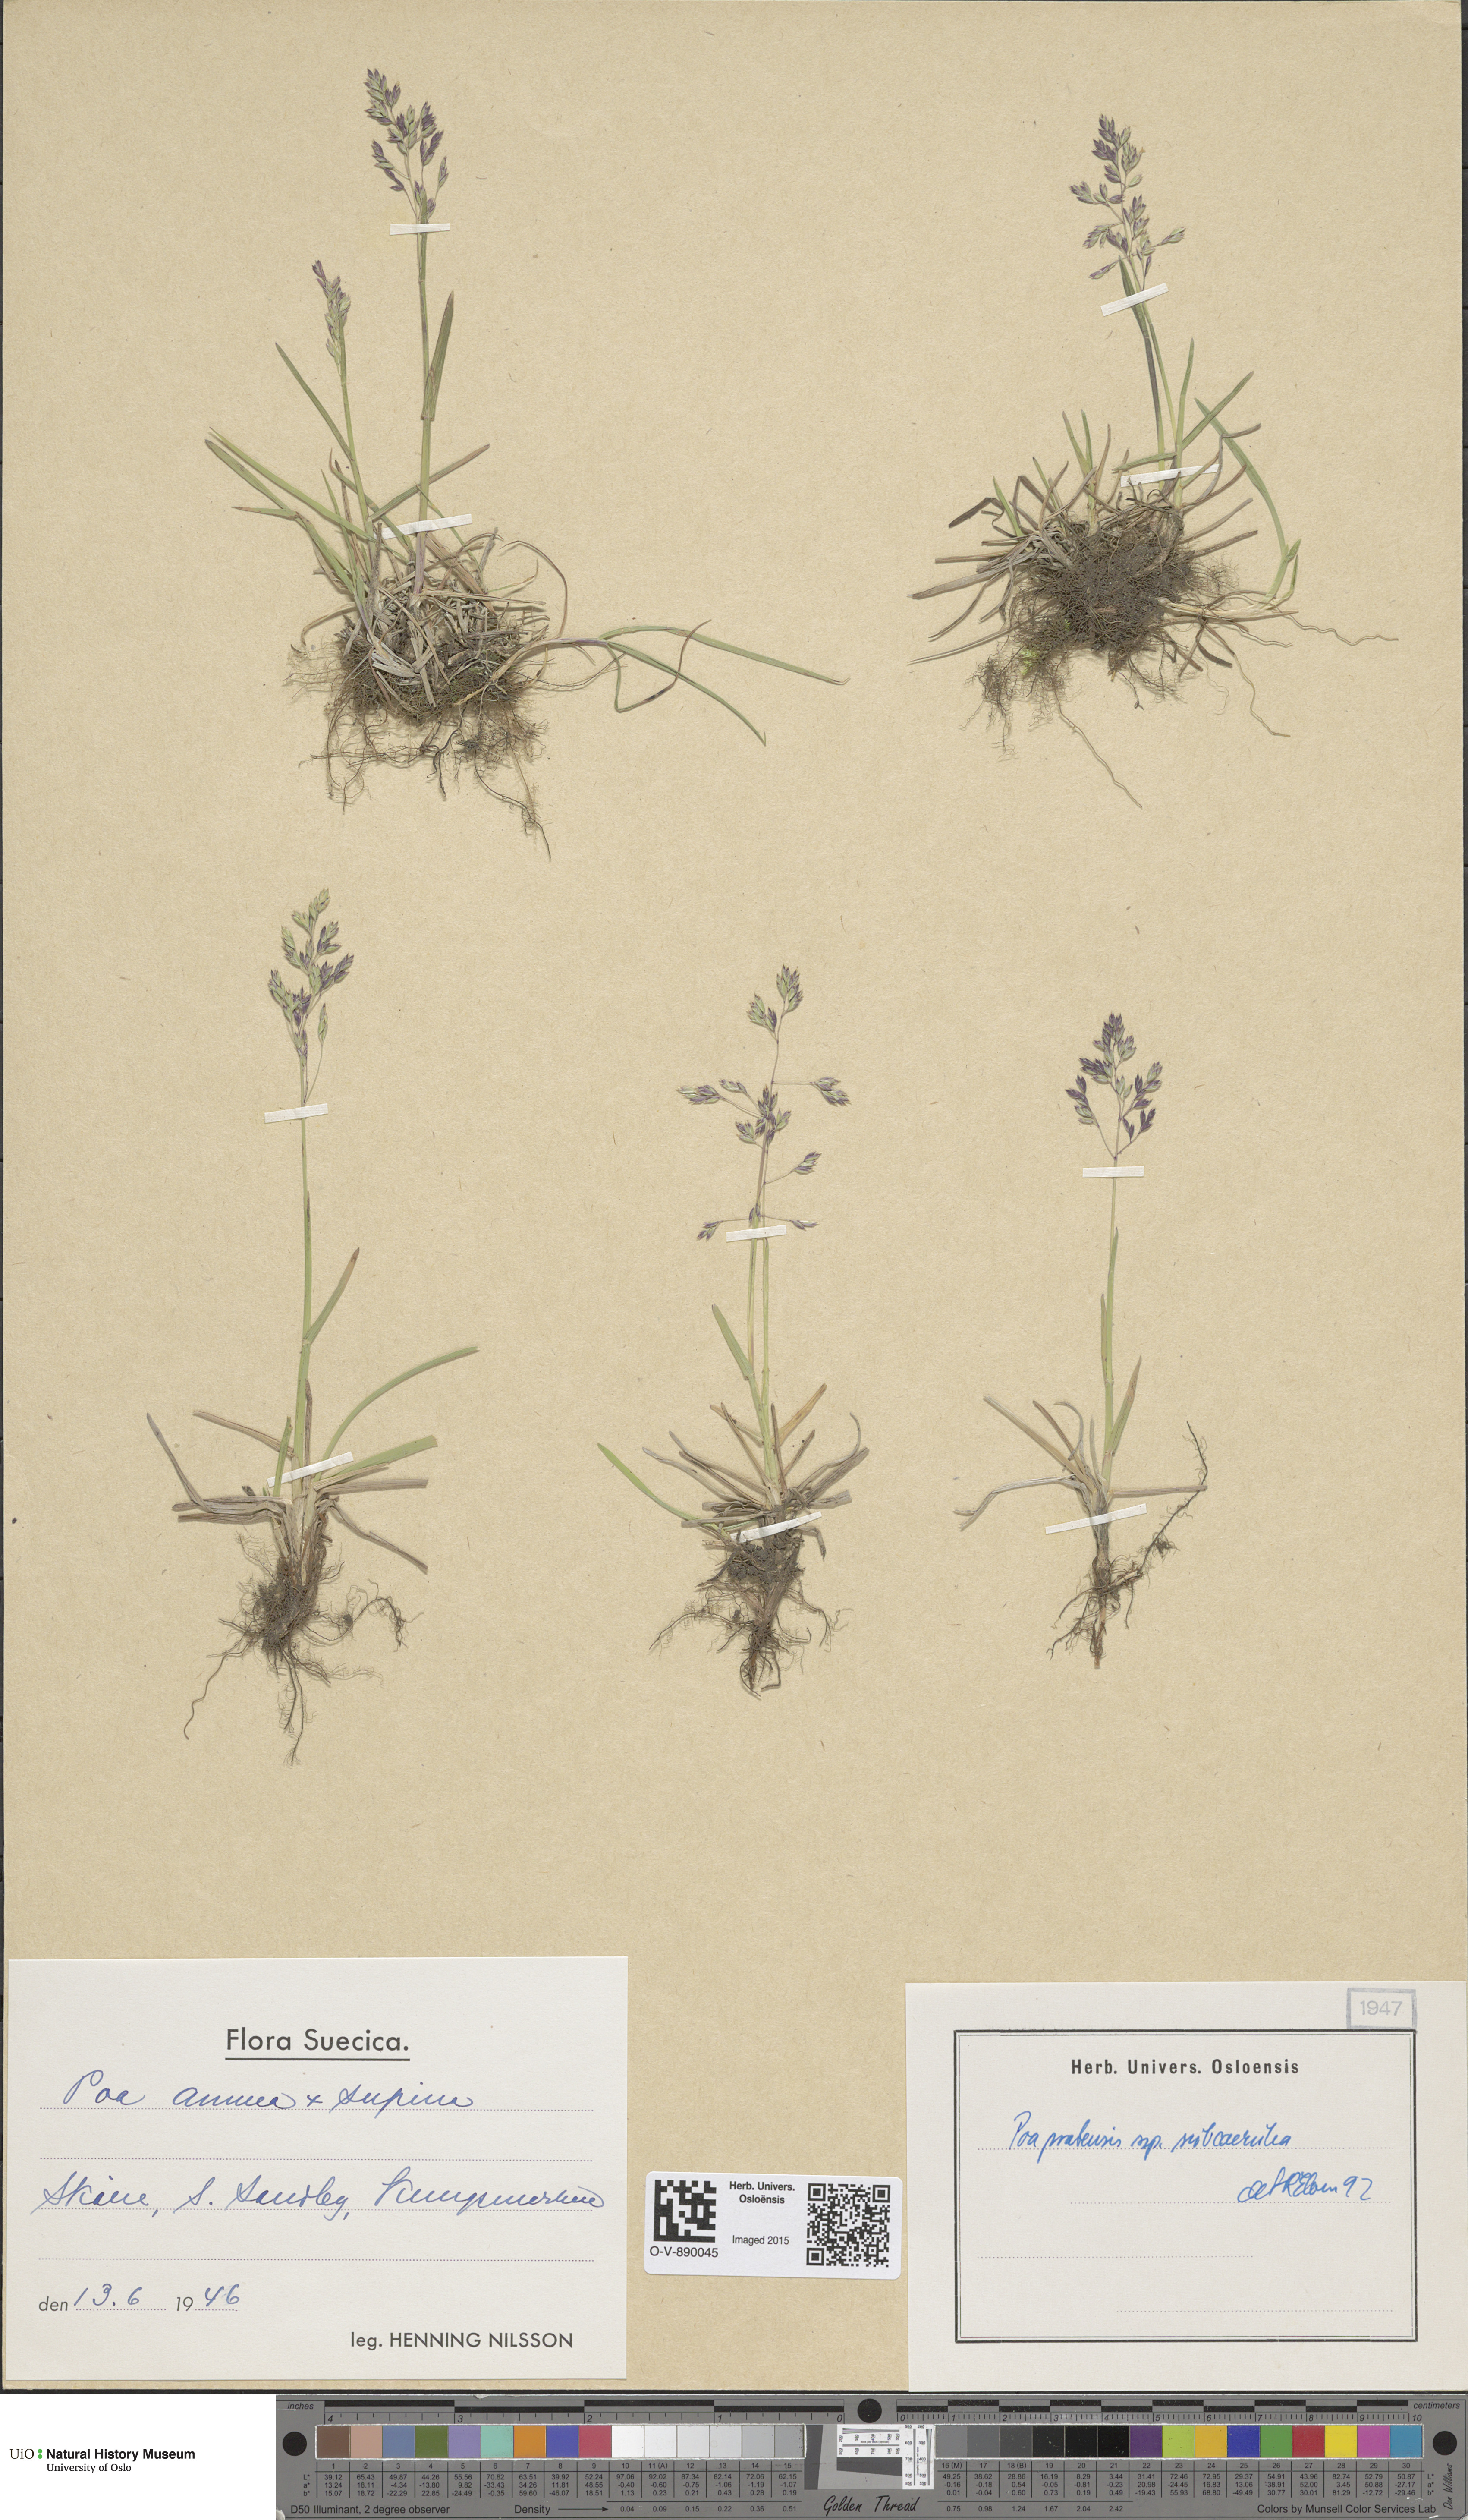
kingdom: Plantae
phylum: Tracheophyta
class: Liliopsida
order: Poales
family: Poaceae
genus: Poa
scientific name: Poa humilis
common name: Spreading meadow-grass
